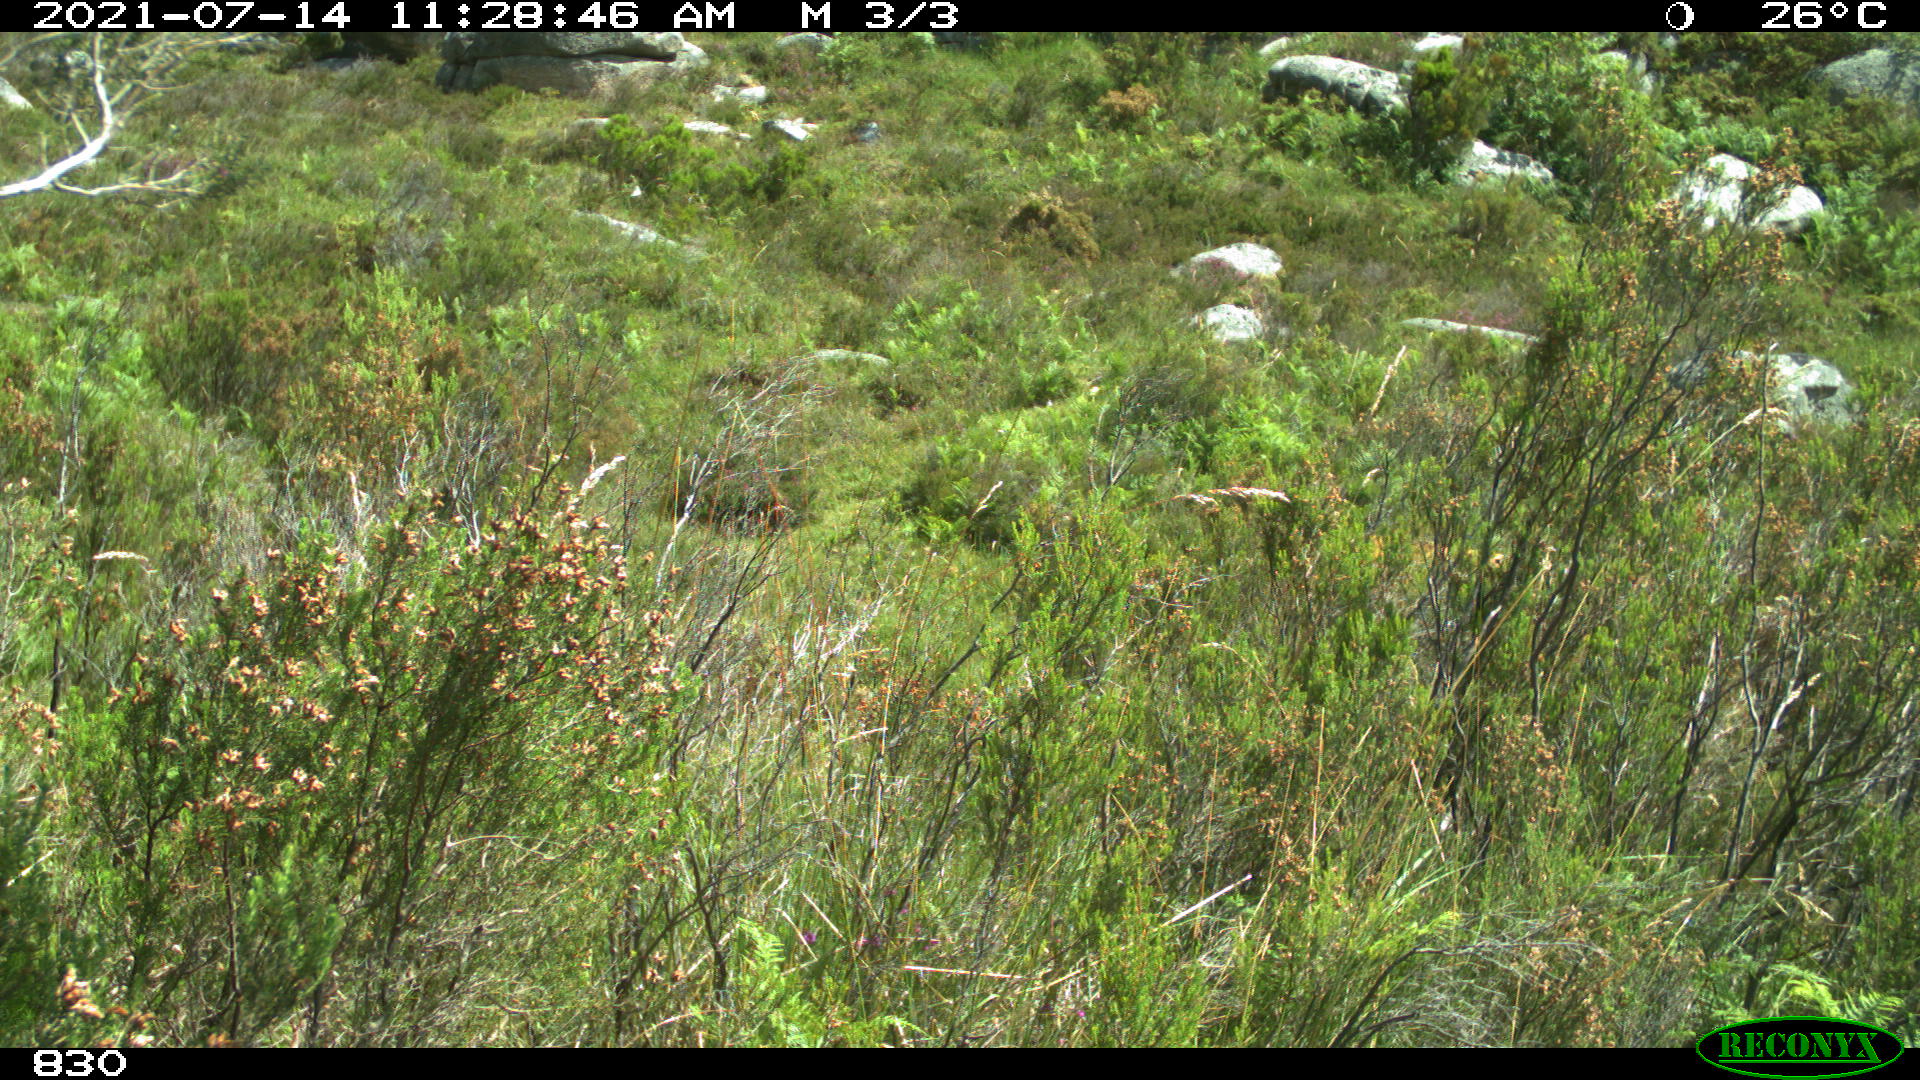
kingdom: Animalia
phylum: Chordata
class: Mammalia
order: Artiodactyla
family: Bovidae
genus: Bos
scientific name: Bos taurus
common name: Domesticated cattle
